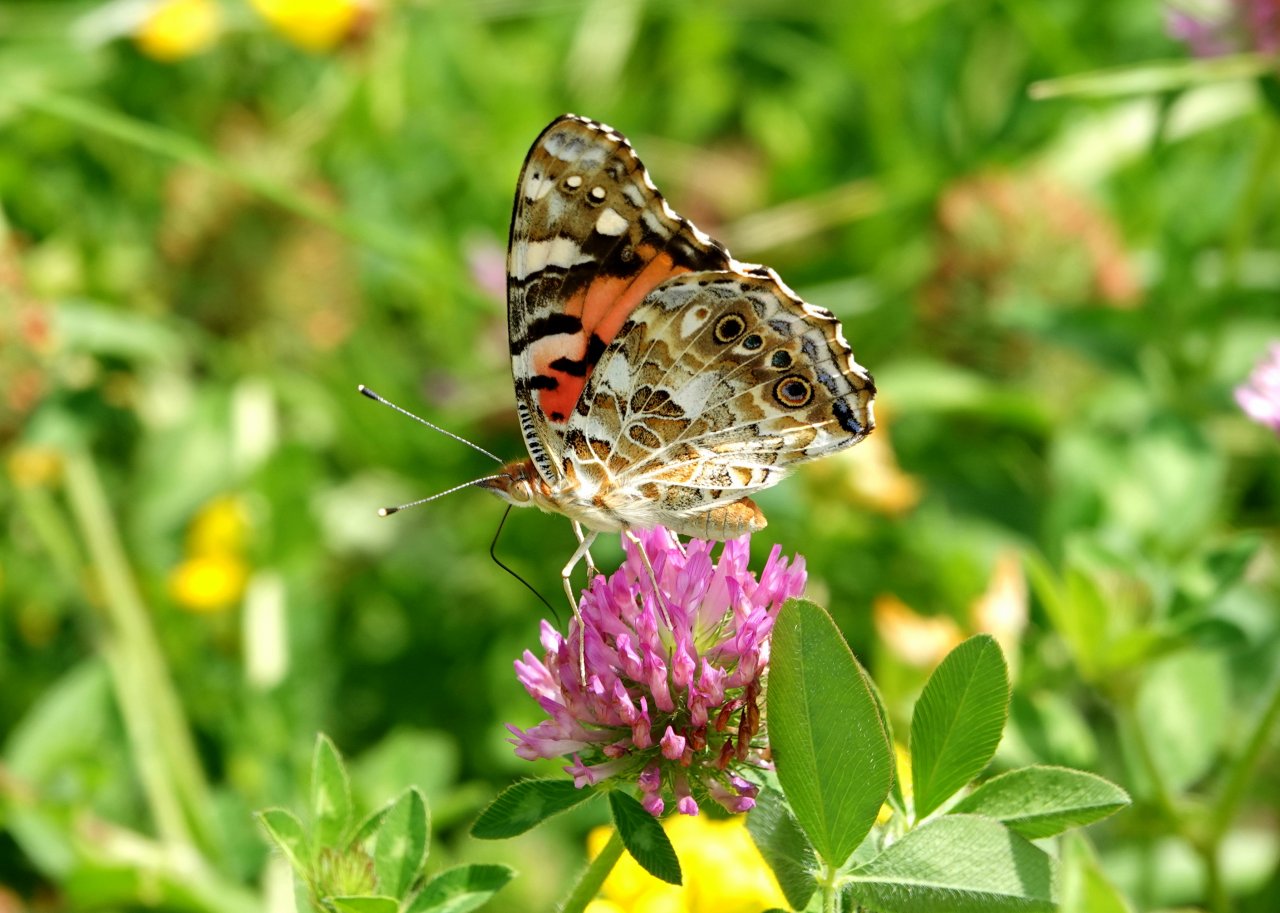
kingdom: Animalia
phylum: Arthropoda
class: Insecta
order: Lepidoptera
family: Nymphalidae
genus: Vanessa
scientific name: Vanessa cardui
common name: Painted Lady
